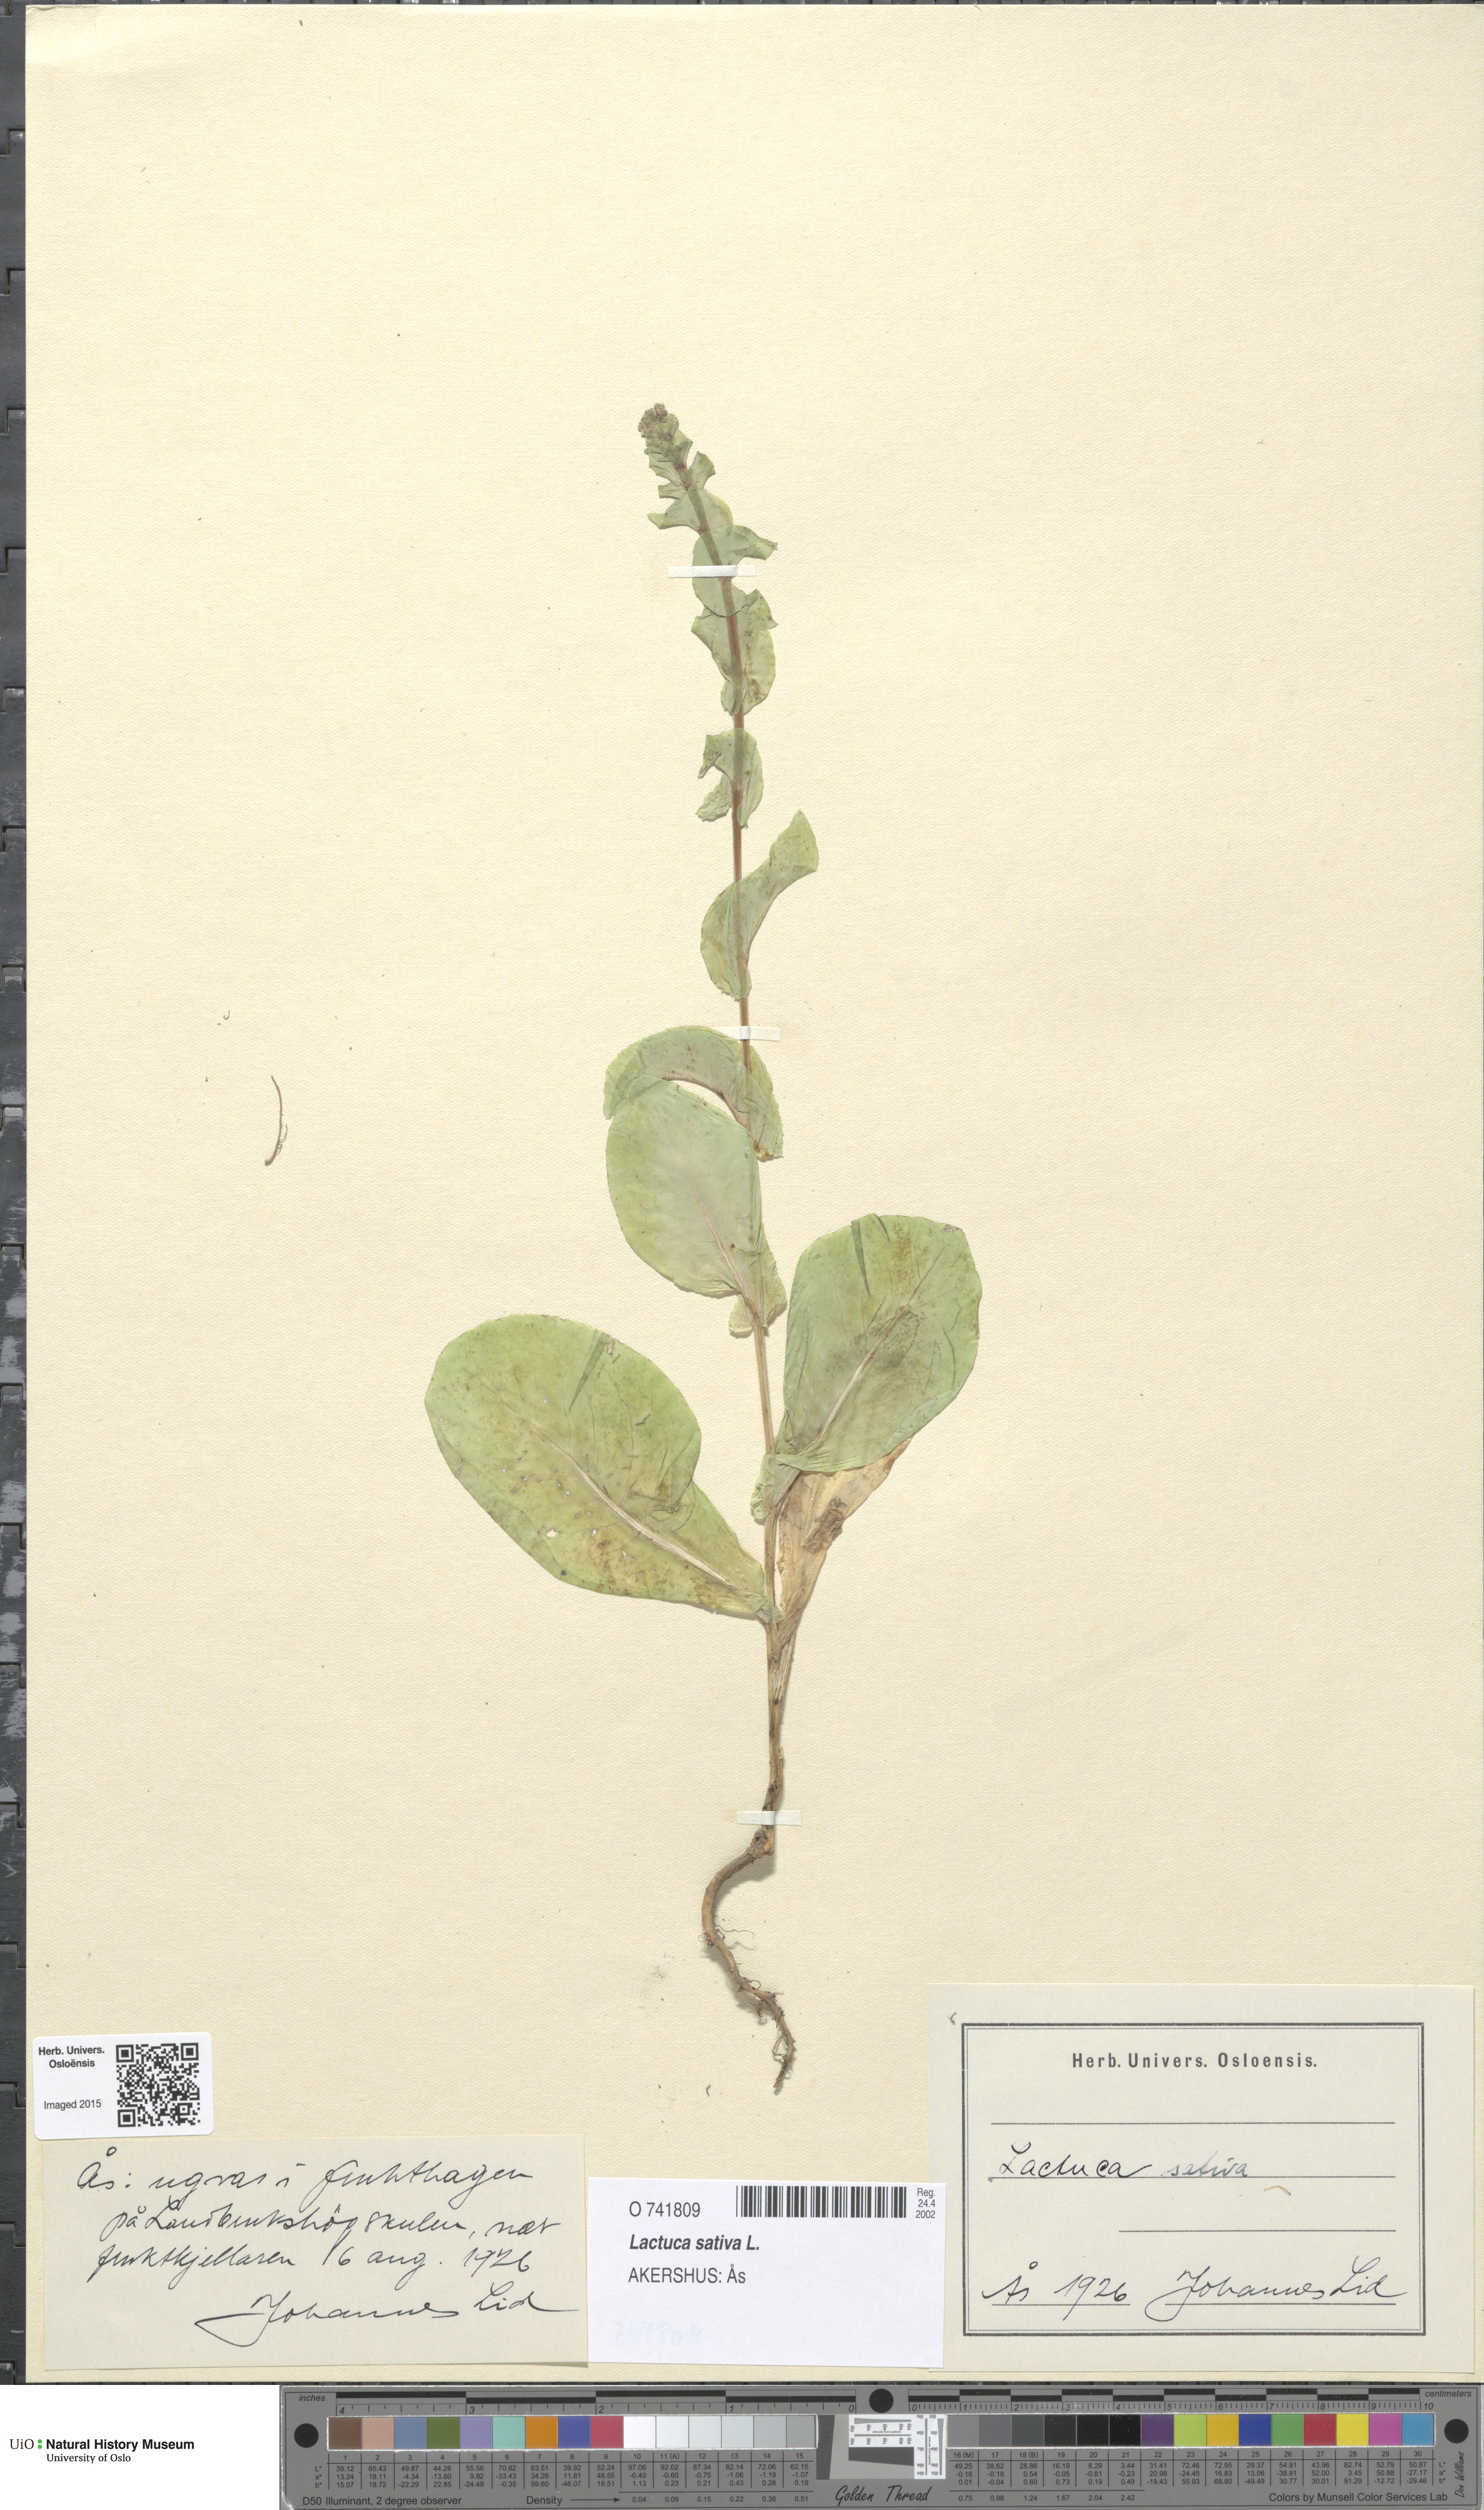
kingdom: Plantae
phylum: Tracheophyta
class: Magnoliopsida
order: Asterales
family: Asteraceae
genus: Lactuca
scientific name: Lactuca sativa
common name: Garden lettuce
